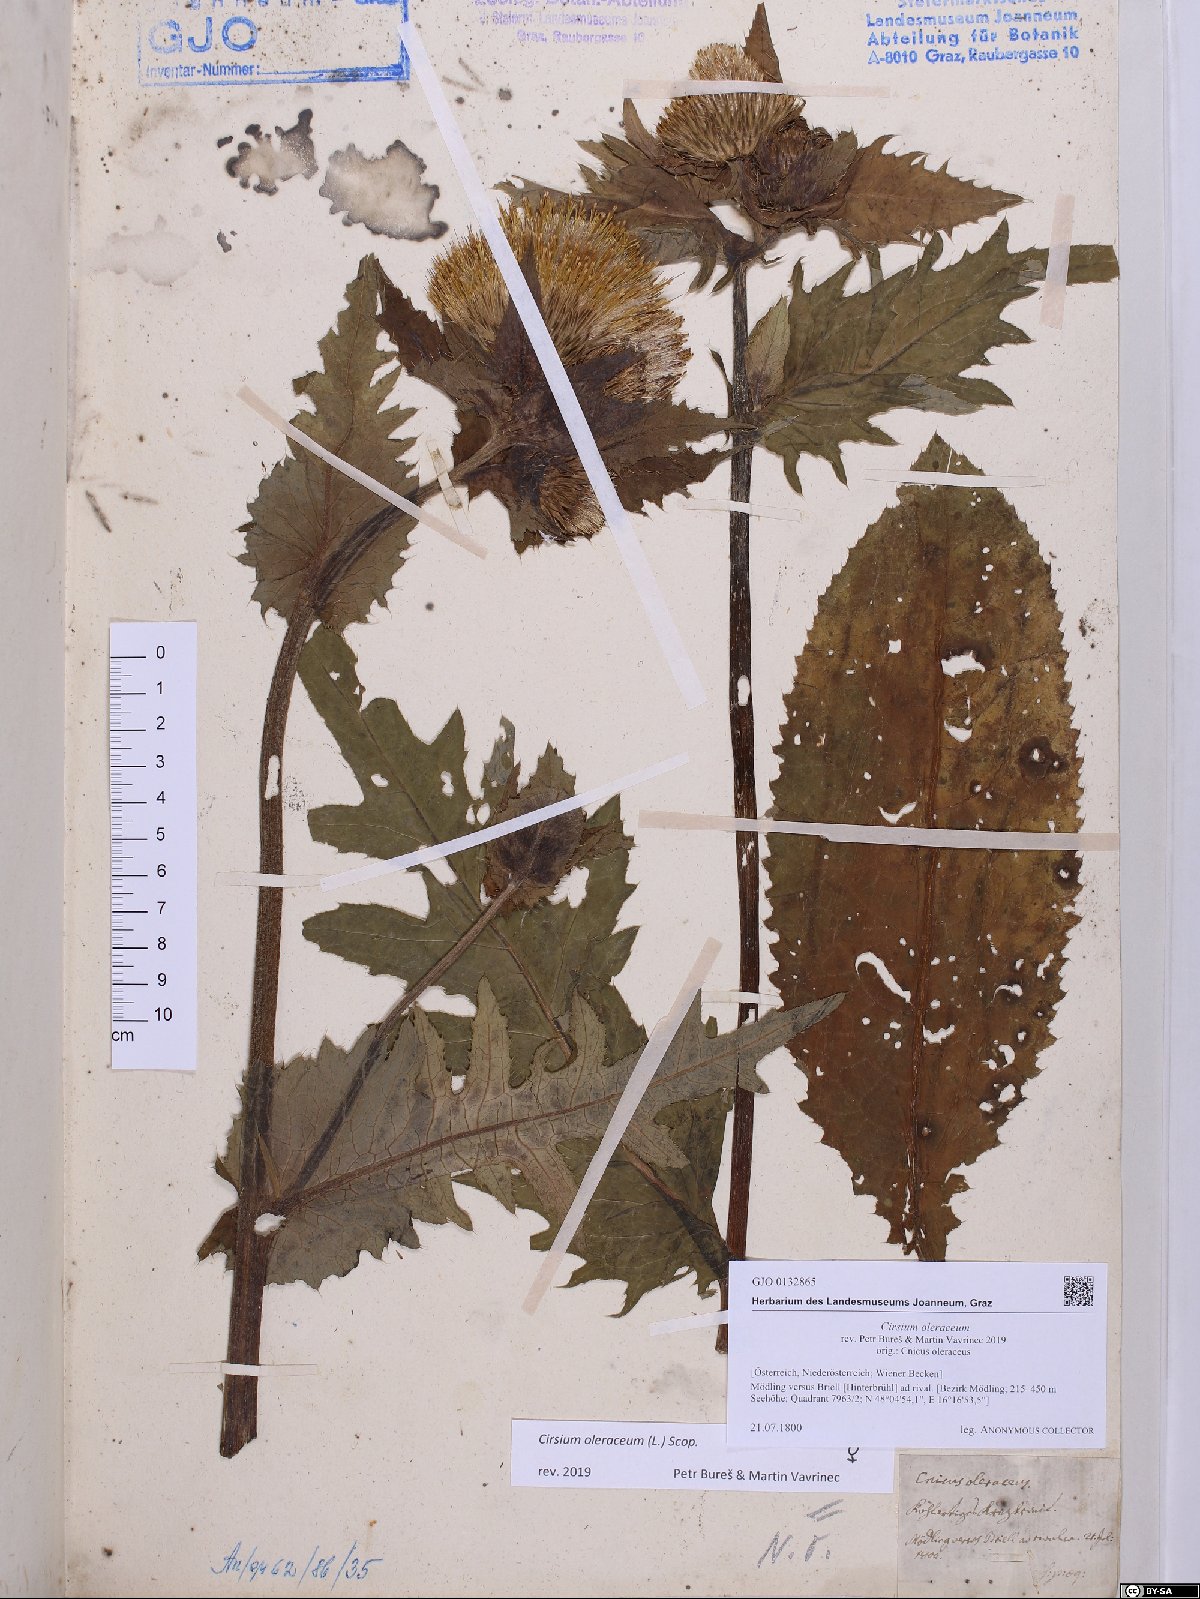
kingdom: Plantae
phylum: Tracheophyta
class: Magnoliopsida
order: Asterales
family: Asteraceae
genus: Cirsium
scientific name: Cirsium oleraceum
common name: Cabbage thistle
